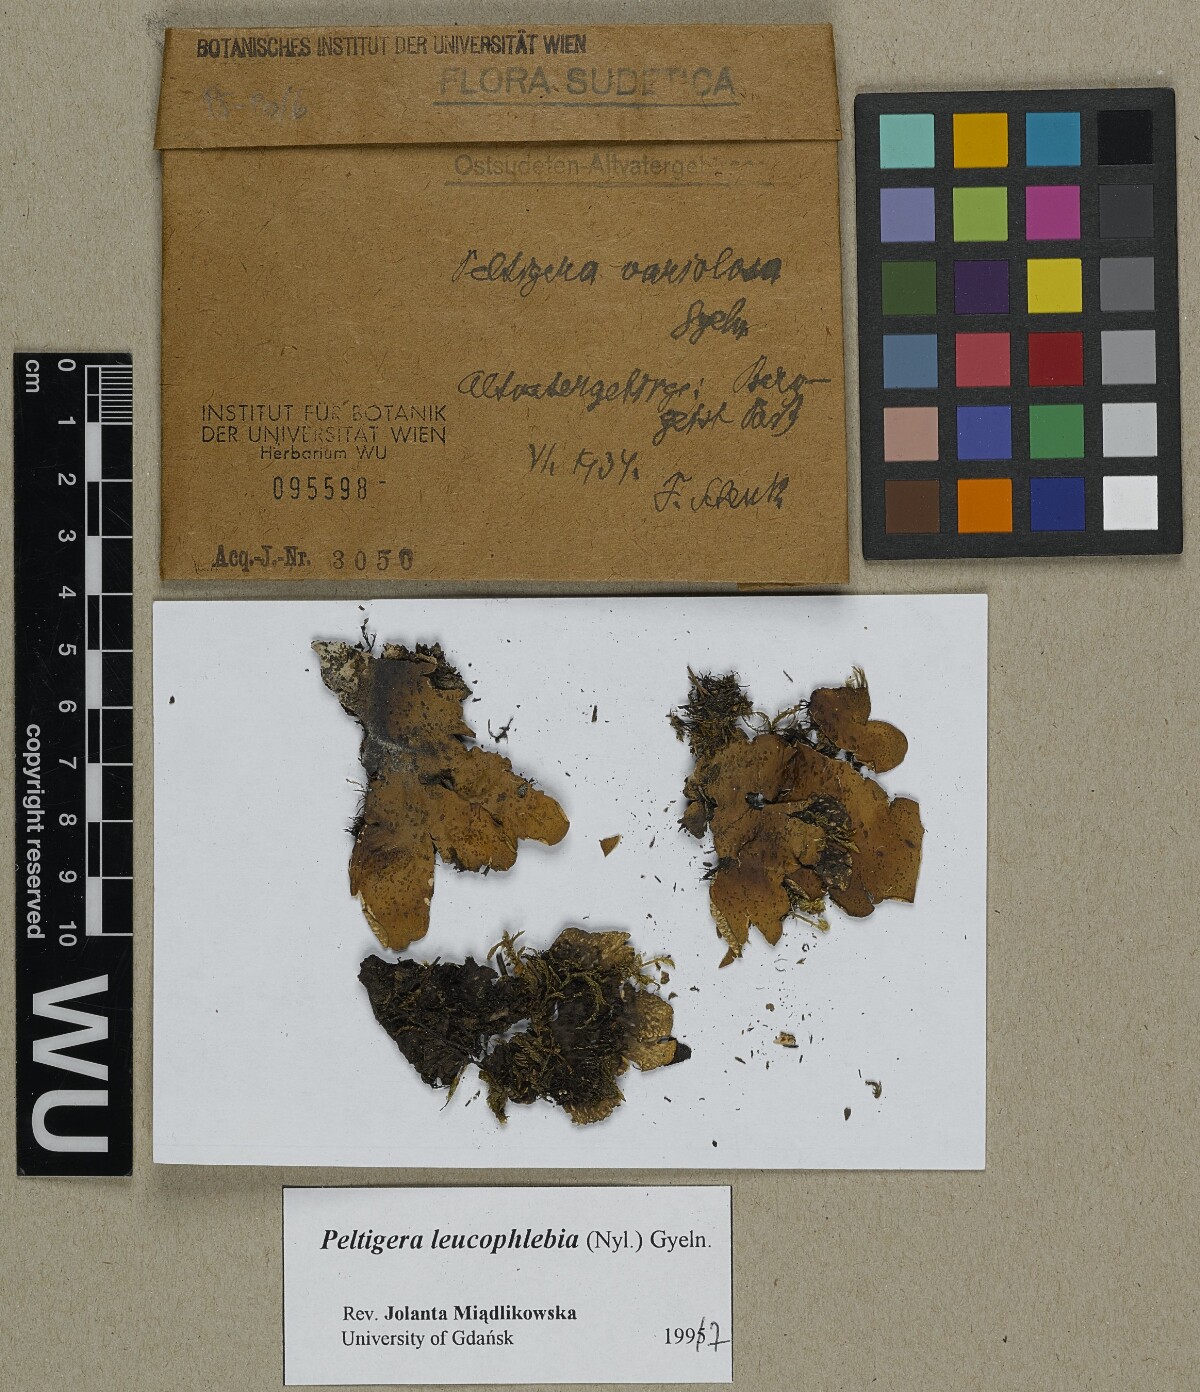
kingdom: Fungi
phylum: Ascomycota
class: Lecanoromycetes
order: Peltigerales
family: Peltigeraceae
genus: Peltigera
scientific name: Peltigera leucophlebia
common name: Ruffled freckle pelt lichen
